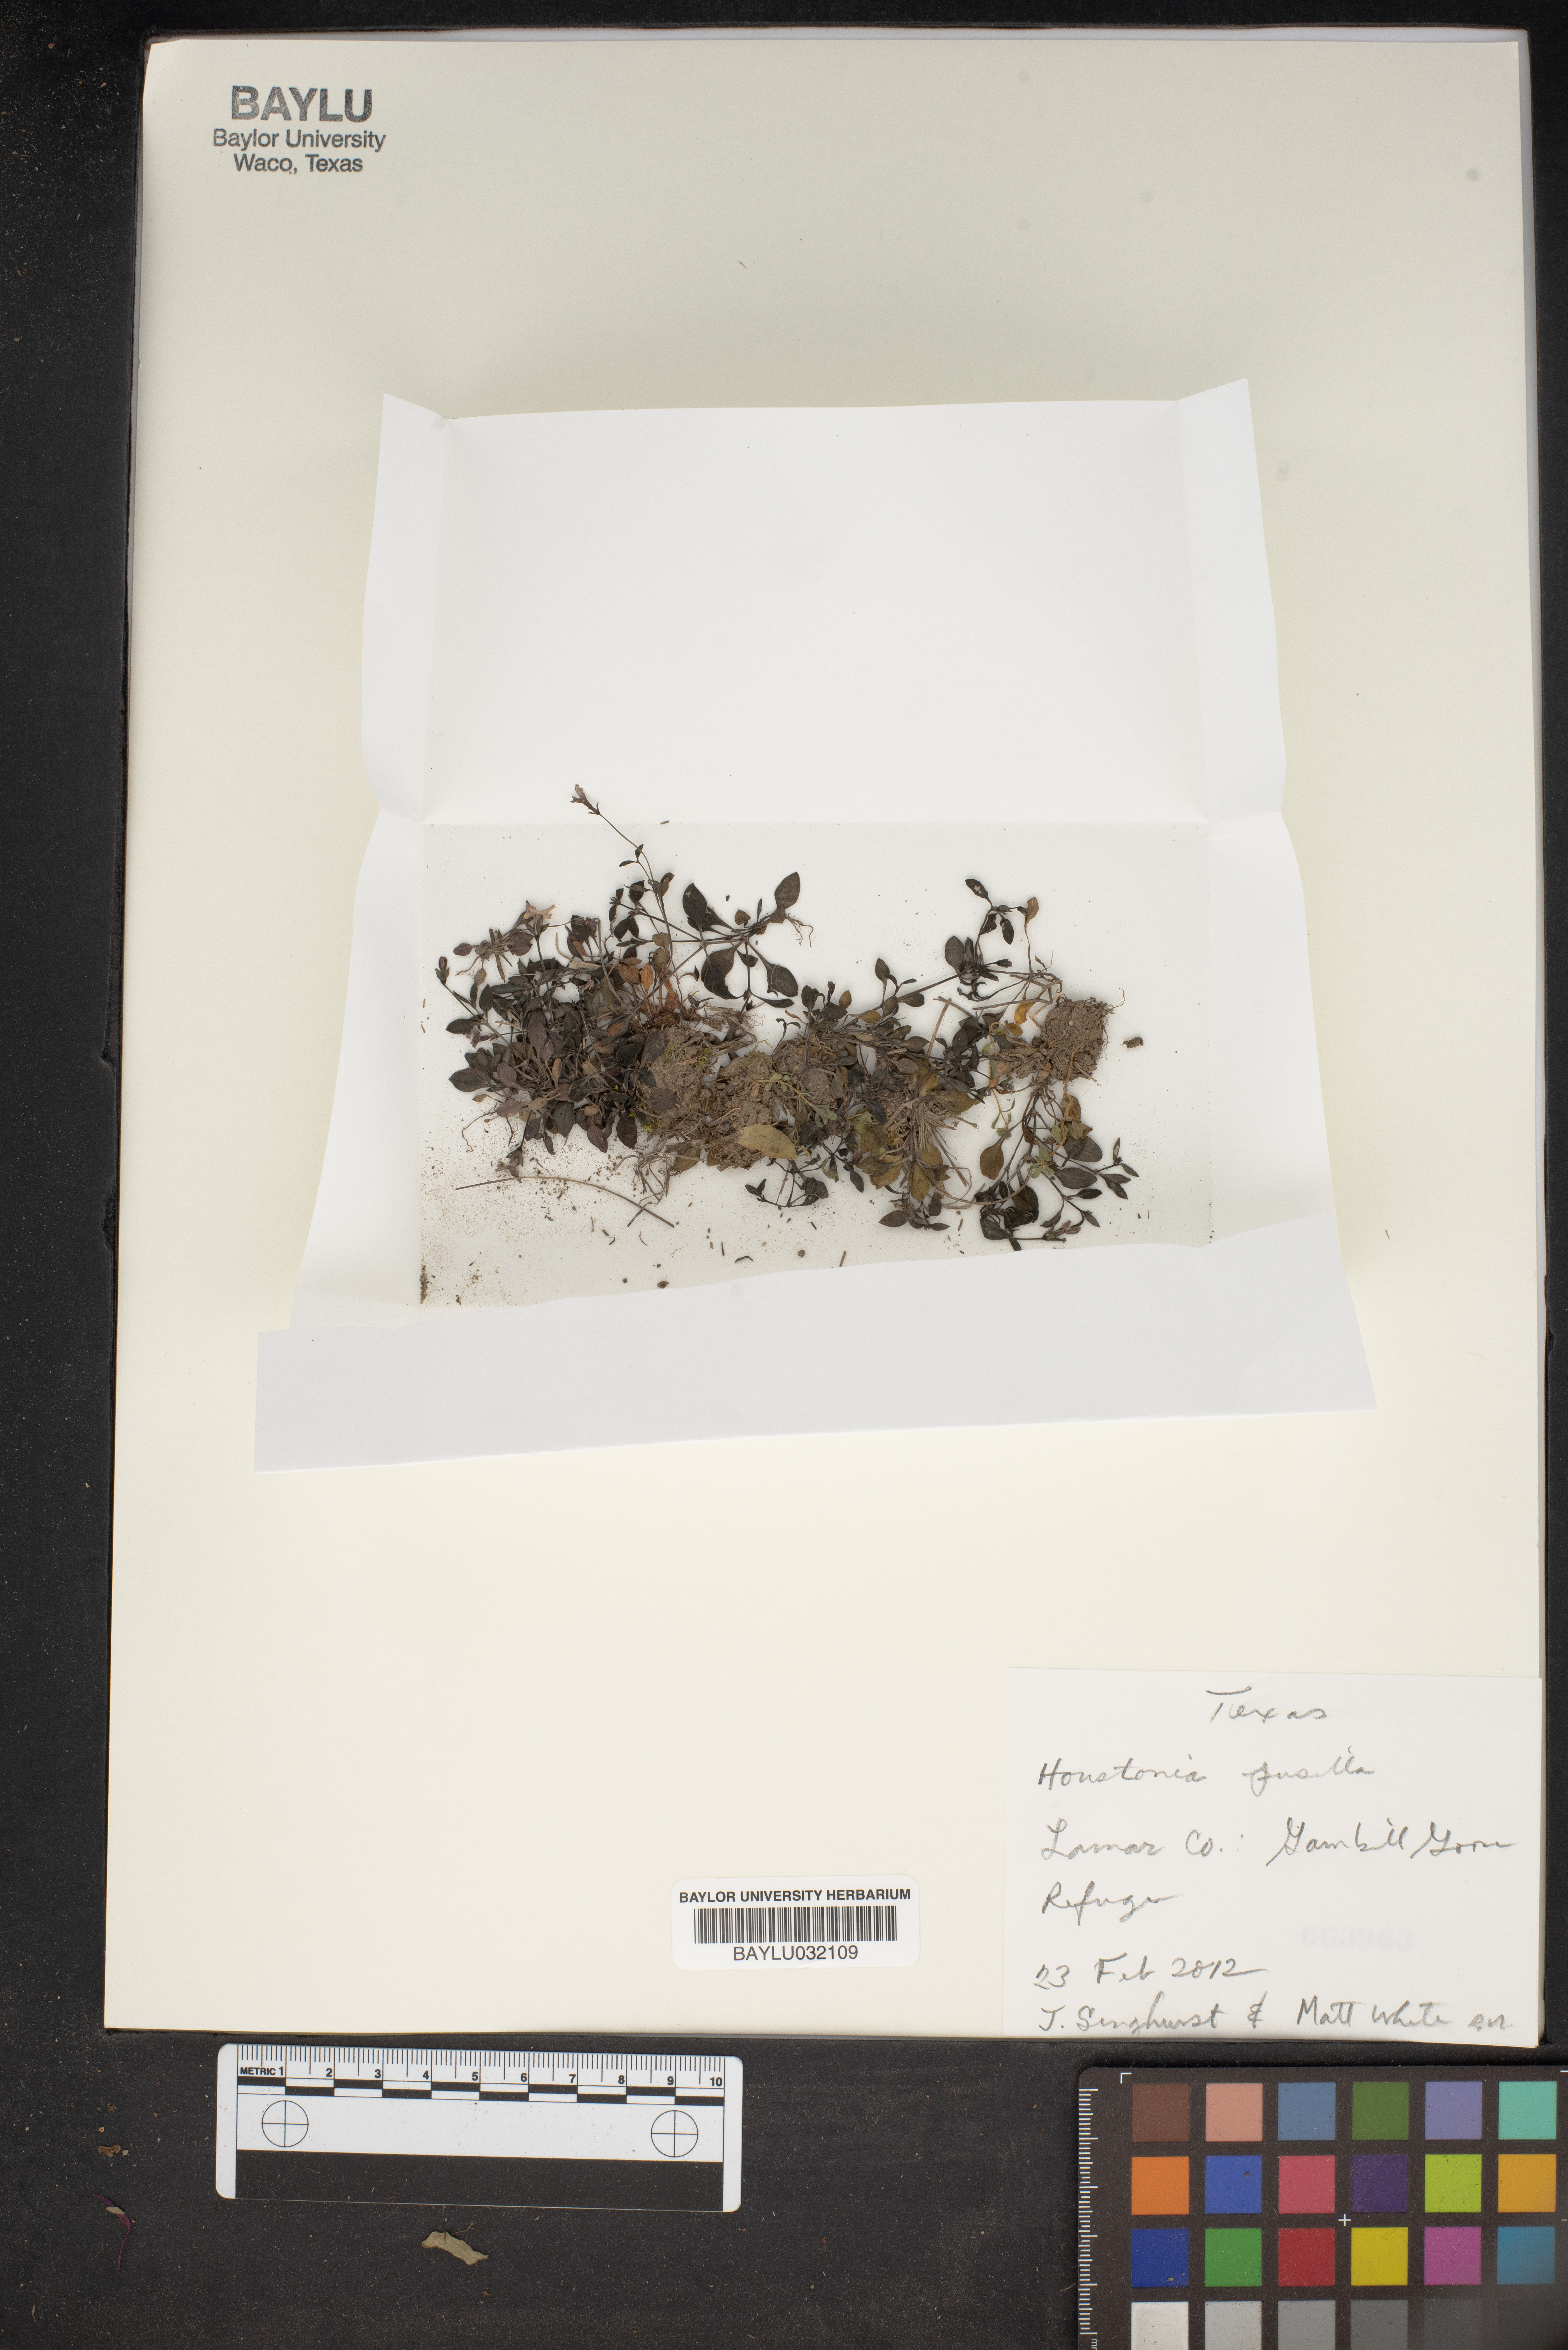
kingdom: Plantae
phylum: Tracheophyta
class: Magnoliopsida
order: Gentianales
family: Rubiaceae
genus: Houstonia
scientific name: Houstonia pusilla
